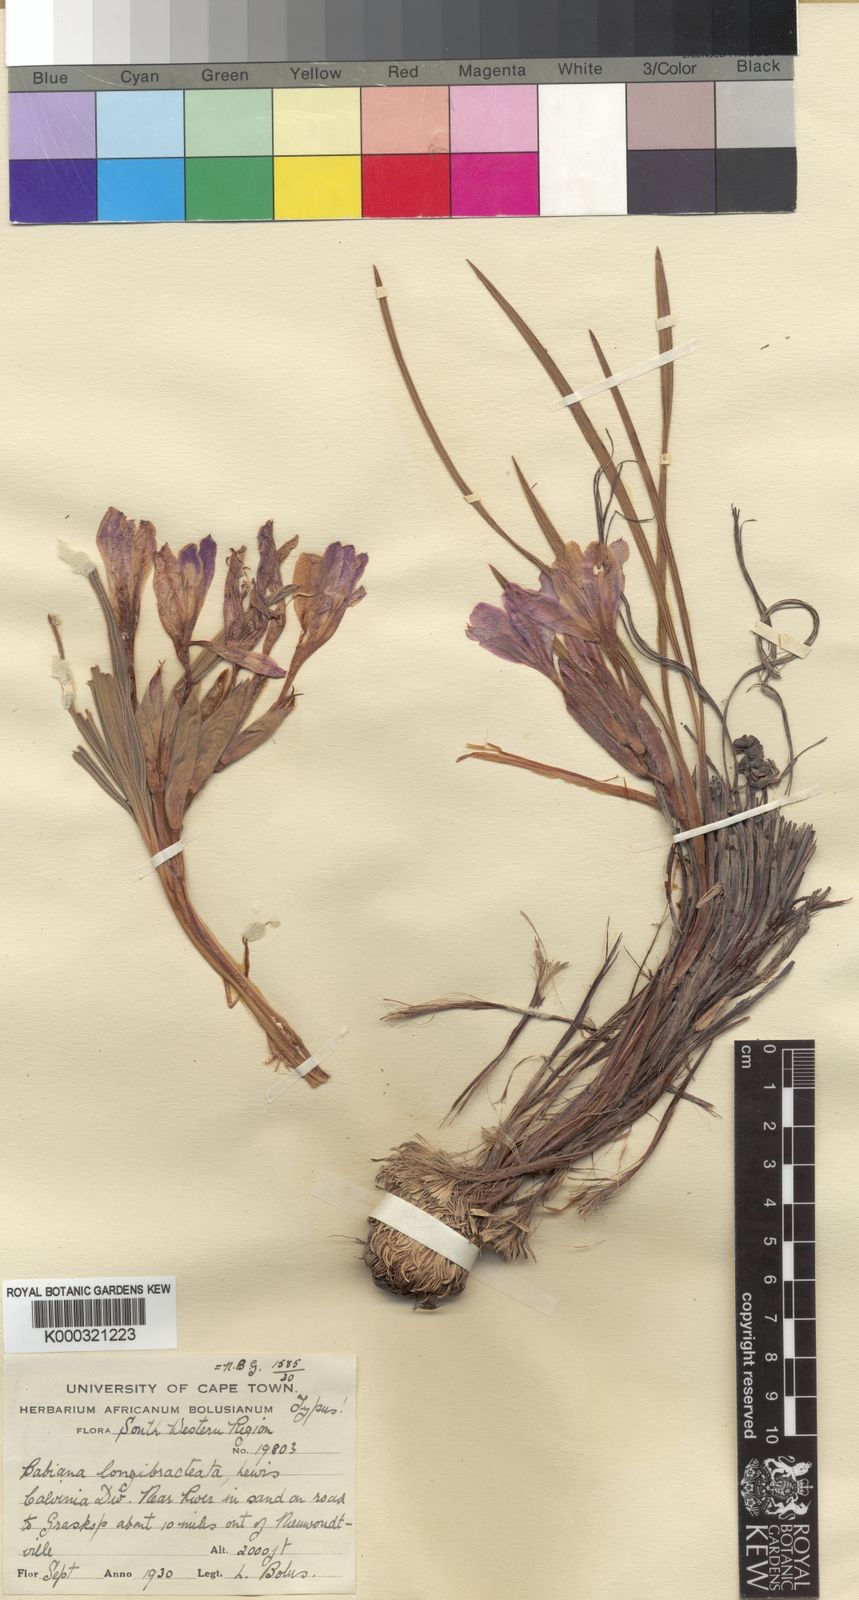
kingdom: Plantae
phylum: Tracheophyta
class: Liliopsida
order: Asparagales
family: Iridaceae
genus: Babiana
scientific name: Babiana sambucina
